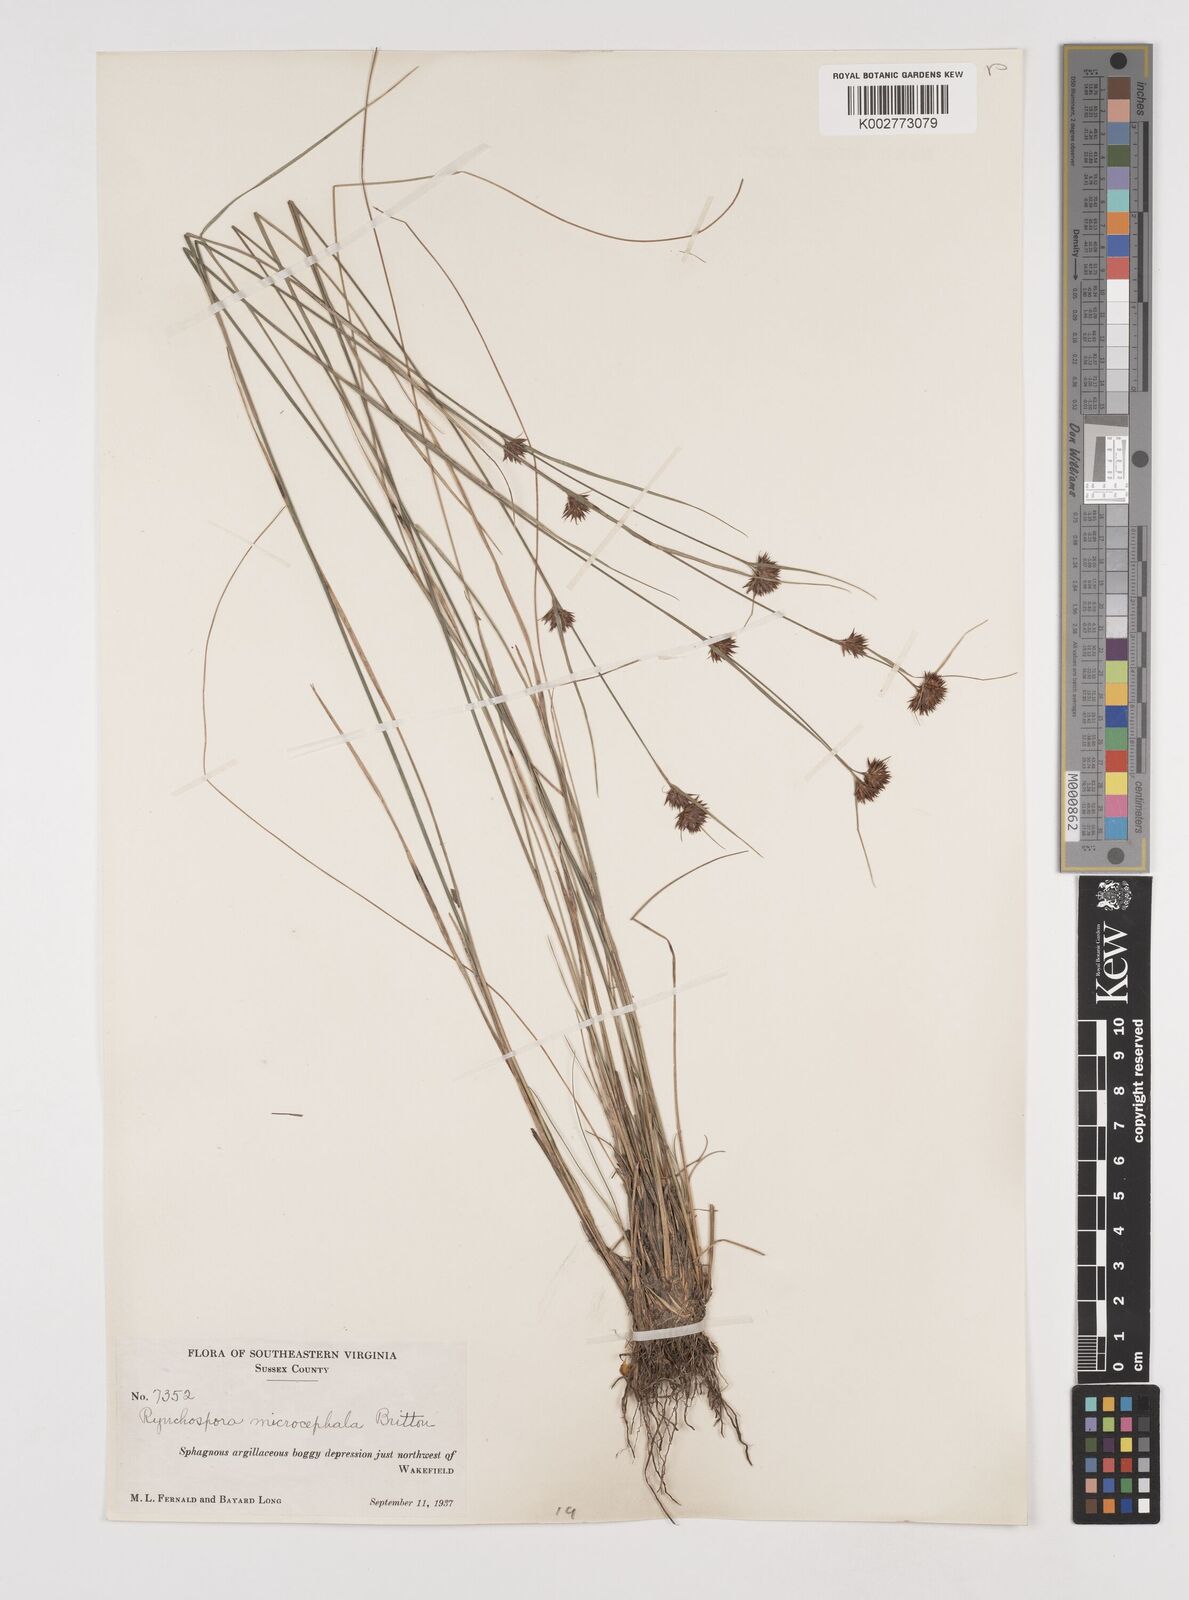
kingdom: Plantae
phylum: Tracheophyta
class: Liliopsida
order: Poales
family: Cyperaceae
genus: Rhynchospora
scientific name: Rhynchospora microcephala
